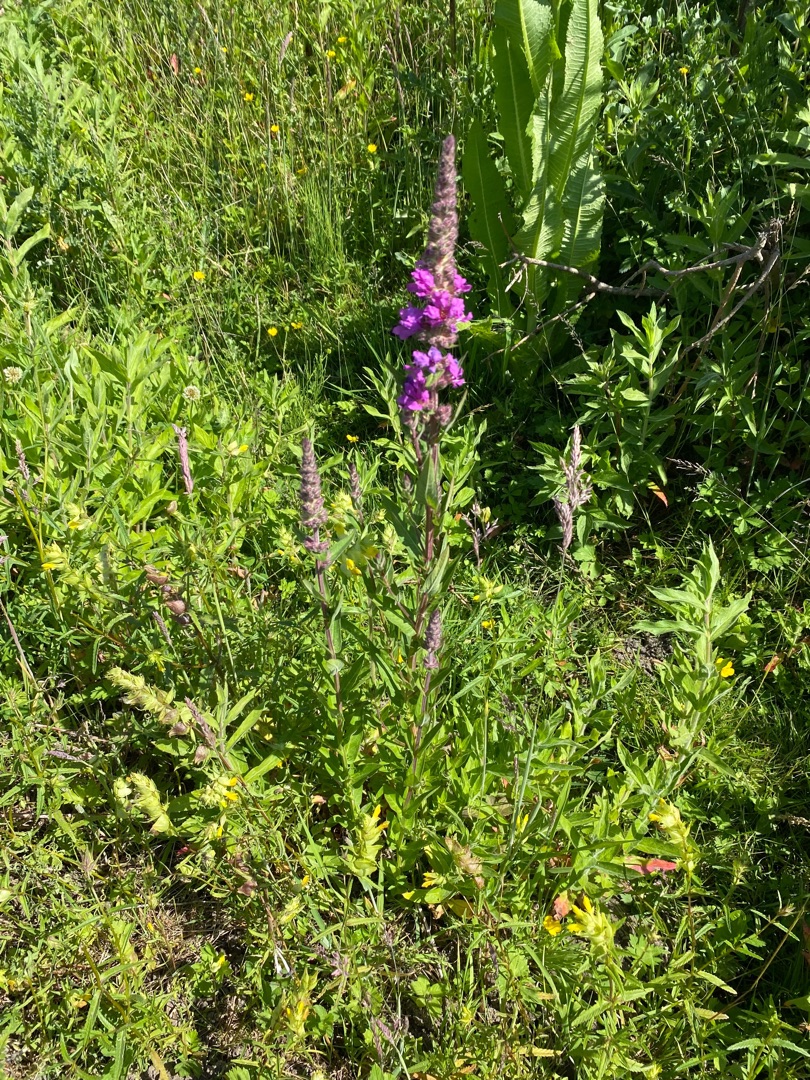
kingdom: Plantae
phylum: Tracheophyta
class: Magnoliopsida
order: Myrtales
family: Lythraceae
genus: Lythrum
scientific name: Lythrum salicaria
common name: Kattehale
